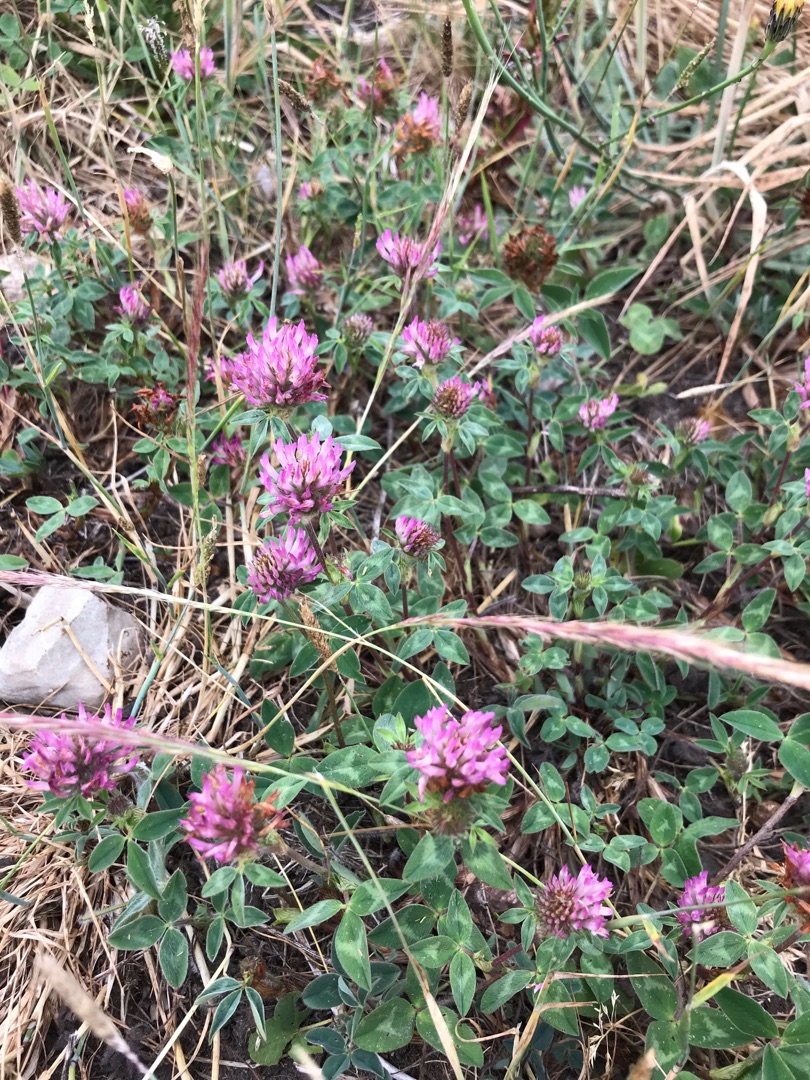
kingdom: Plantae
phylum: Tracheophyta
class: Magnoliopsida
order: Fabales
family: Fabaceae
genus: Trifolium
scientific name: Trifolium pratense
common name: Rød-kløver
